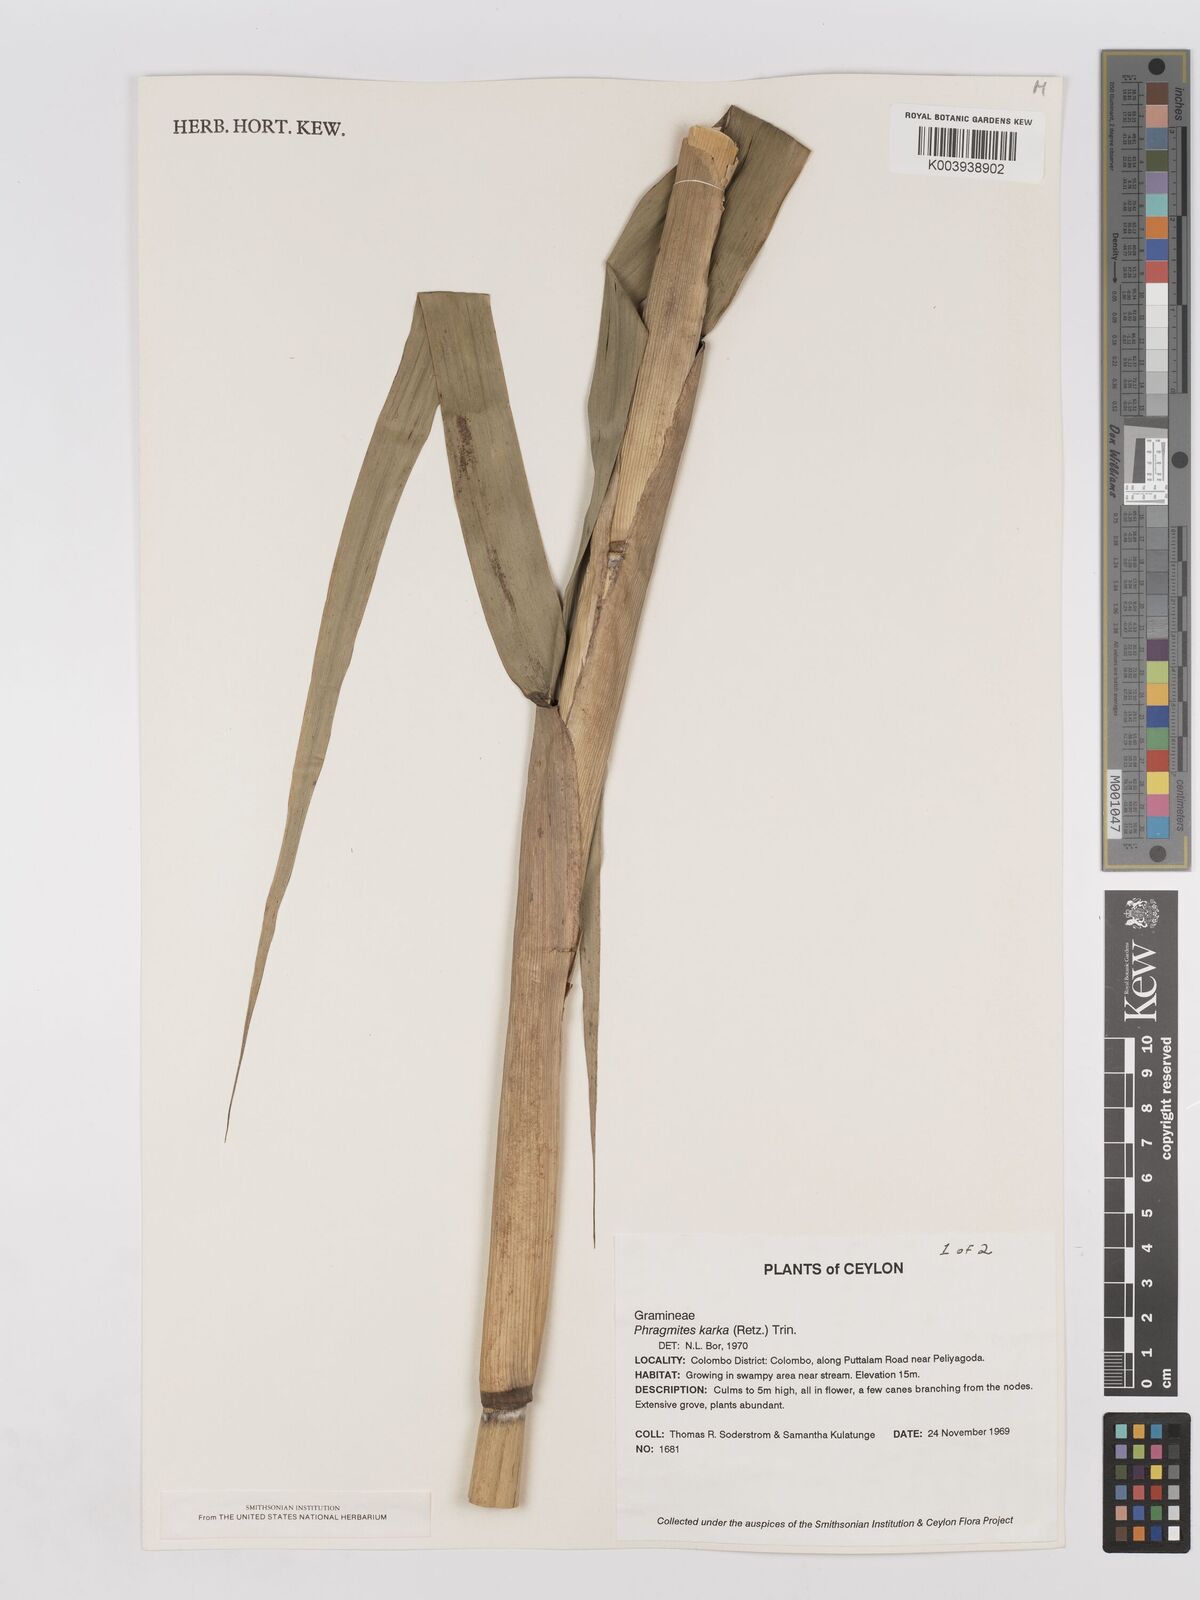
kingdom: Plantae
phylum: Tracheophyta
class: Liliopsida
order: Poales
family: Poaceae
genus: Phragmites
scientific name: Phragmites karka
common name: Tropical reed
